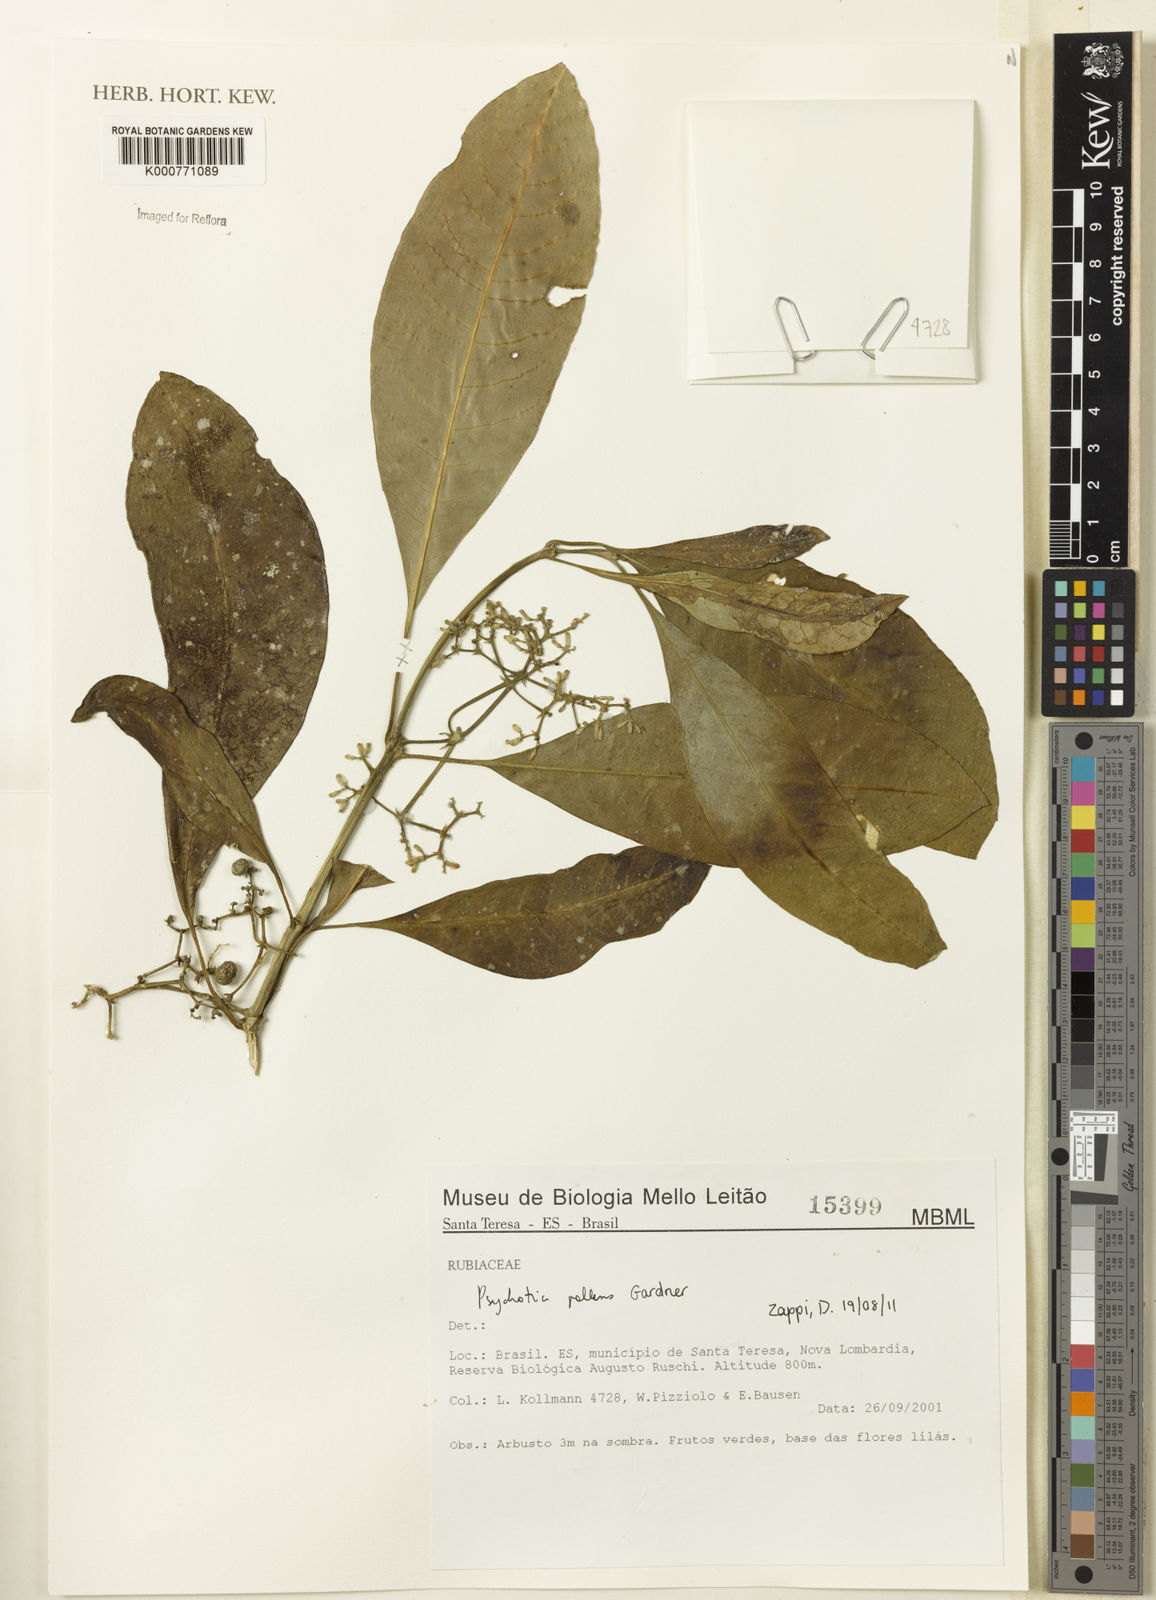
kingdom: Plantae
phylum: Tracheophyta
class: Magnoliopsida
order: Gentianales
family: Rubiaceae
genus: Psychotria
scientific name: Psychotria pallens
